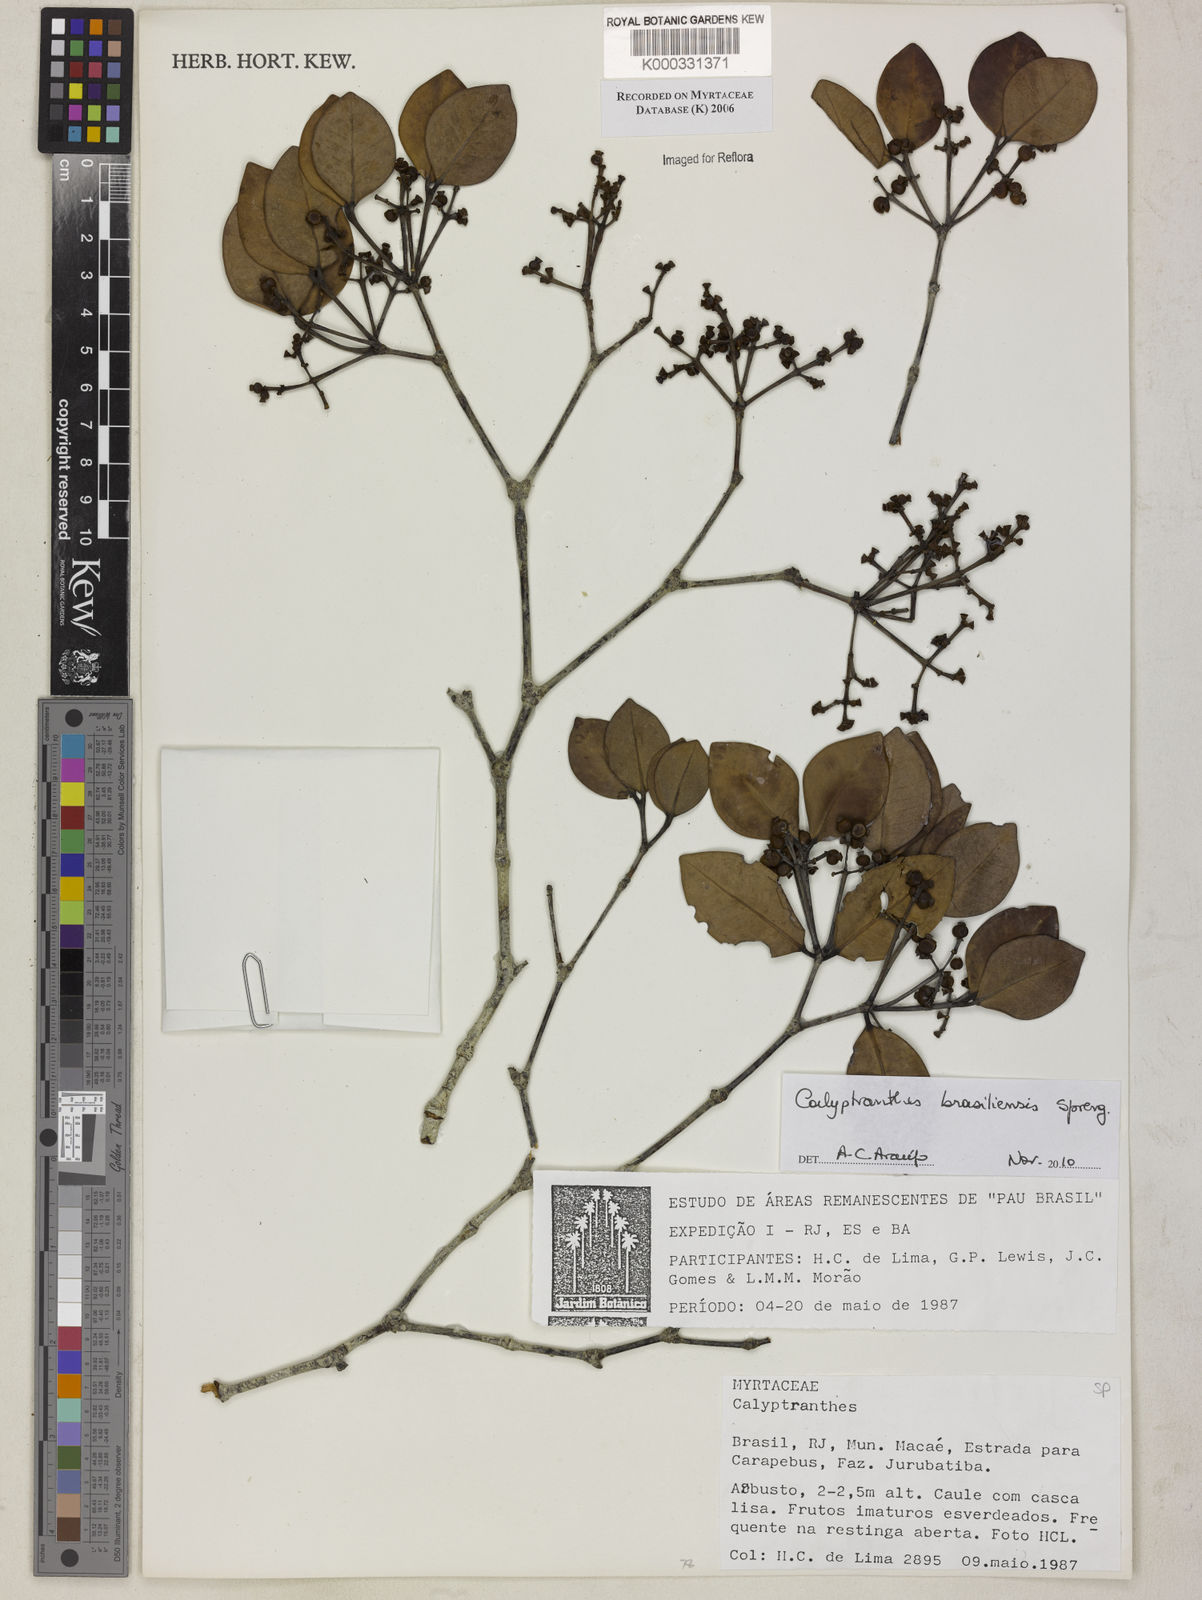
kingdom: Plantae
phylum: Tracheophyta
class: Magnoliopsida
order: Myrtales
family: Myrtaceae
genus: Calyptranthes
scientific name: Calyptranthes
